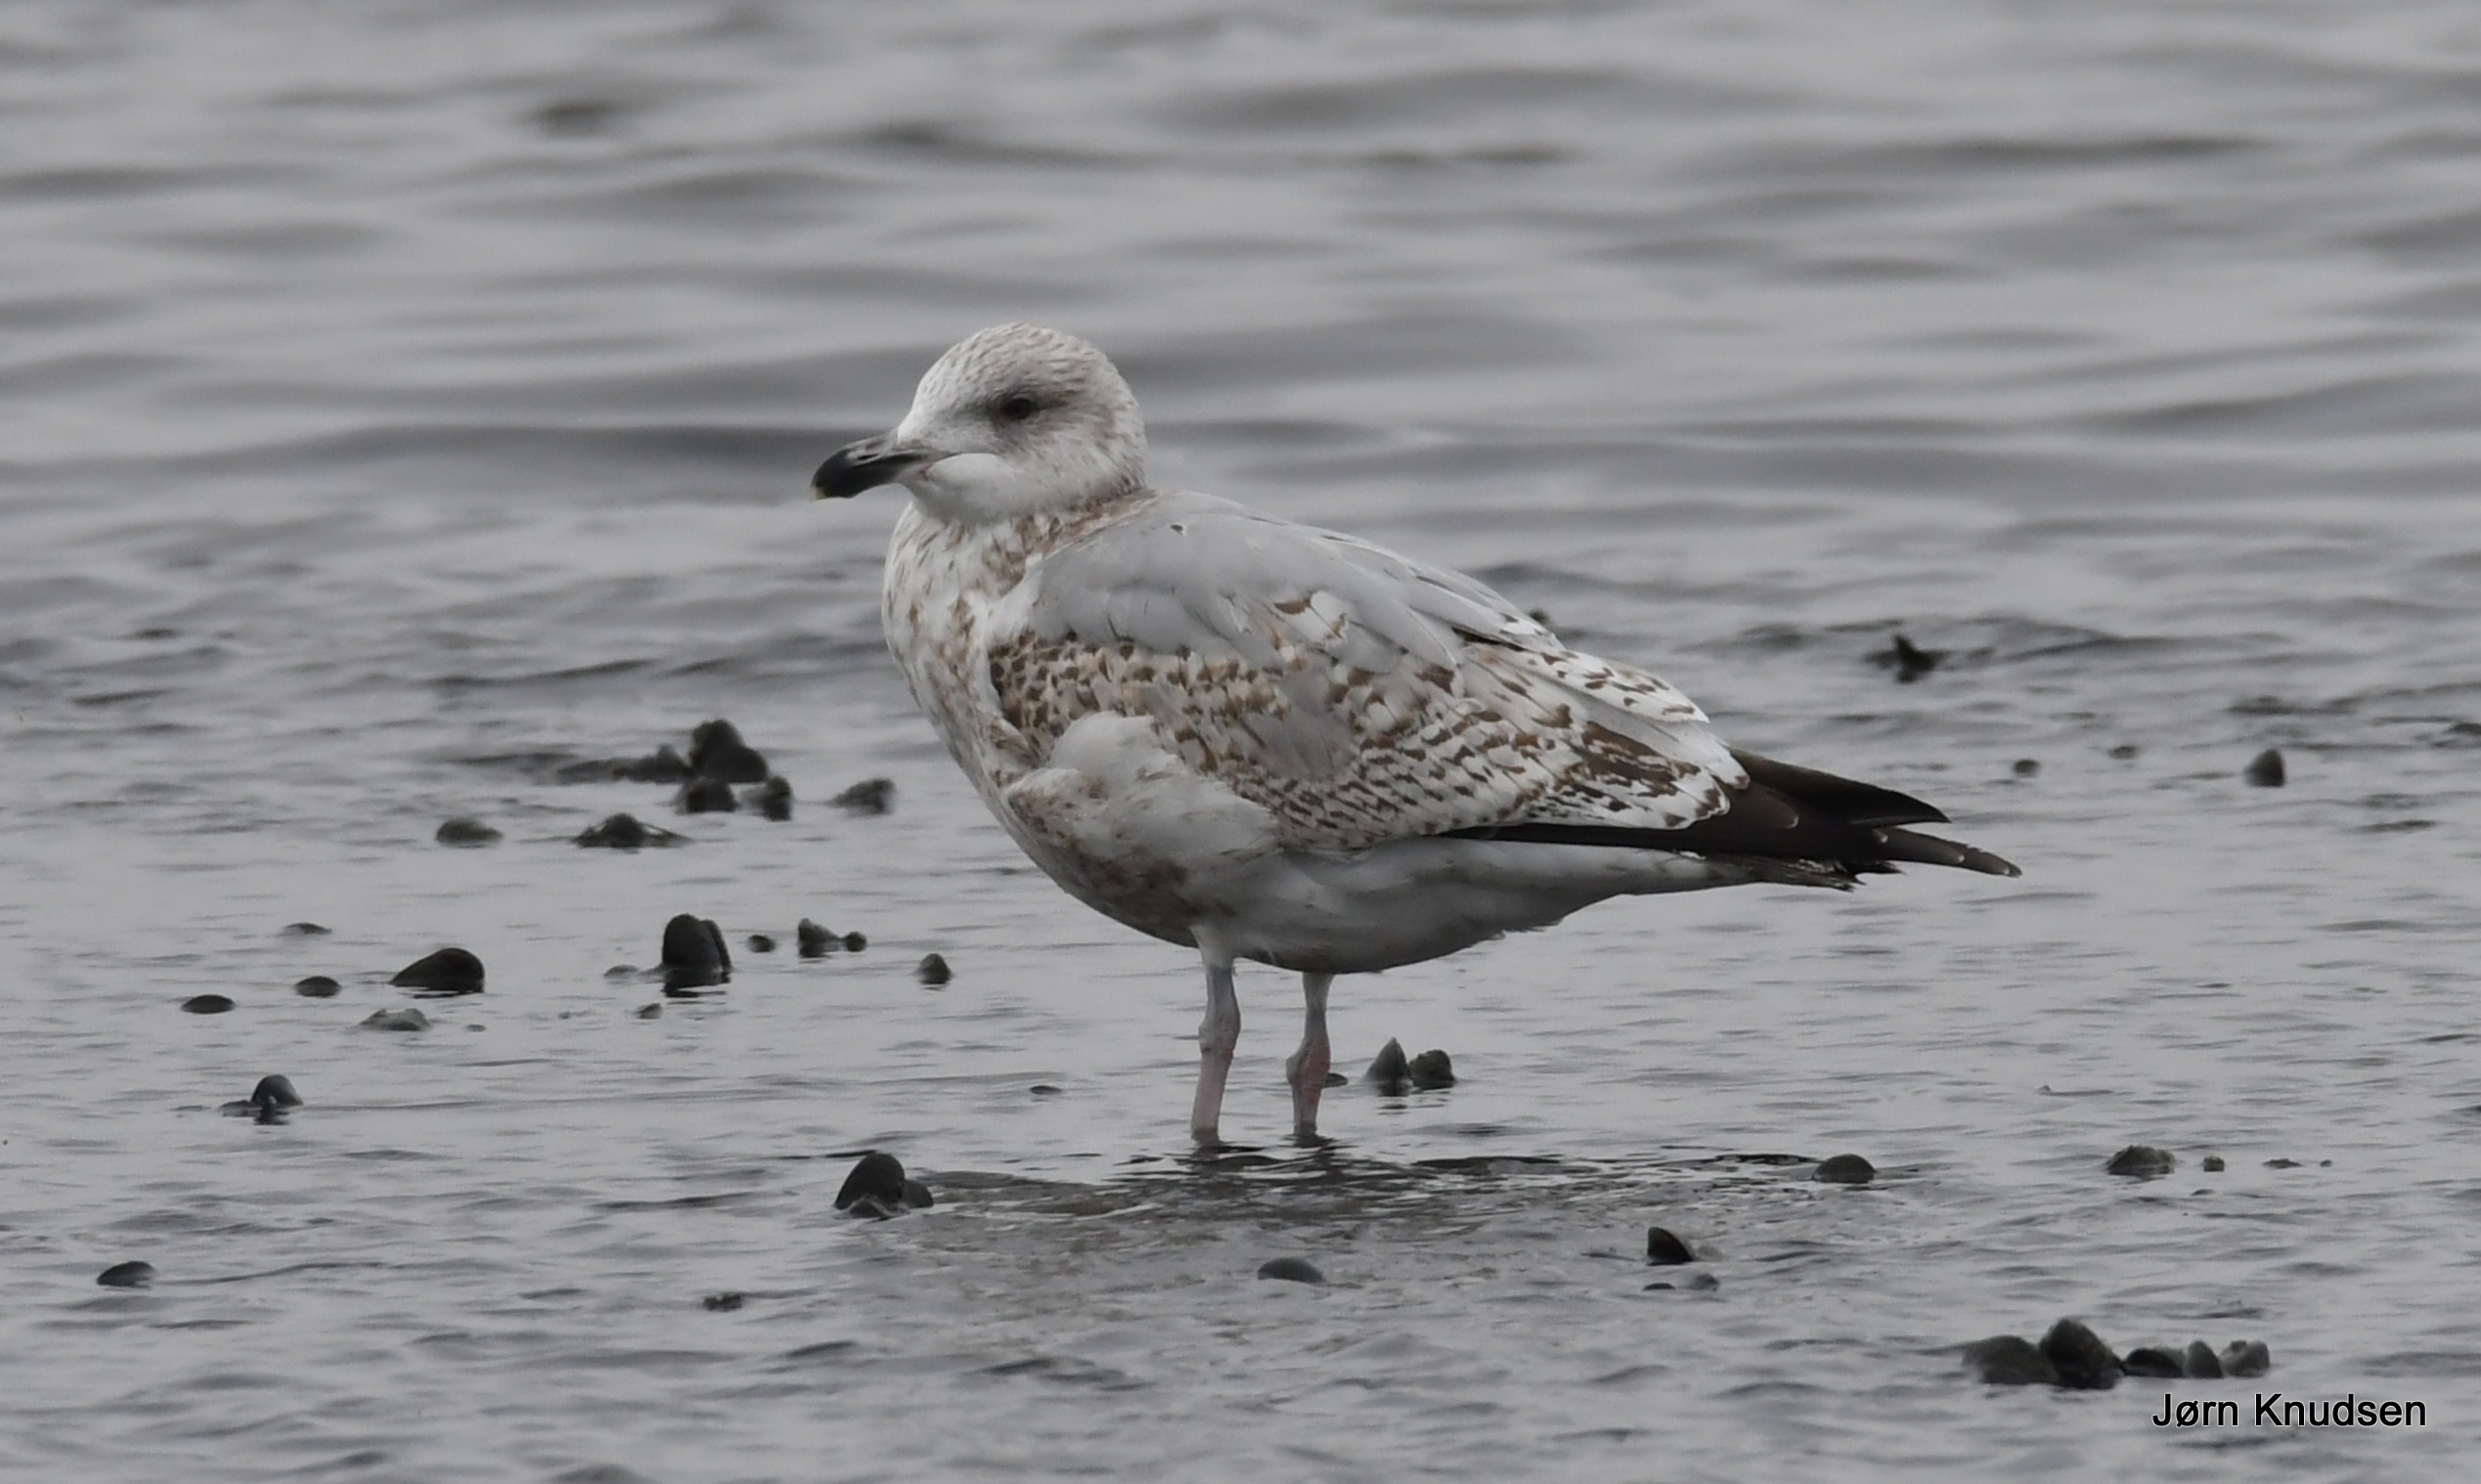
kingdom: Animalia
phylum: Chordata
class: Aves
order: Charadriiformes
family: Laridae
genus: Larus
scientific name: Larus argentatus
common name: Sølvmåge
